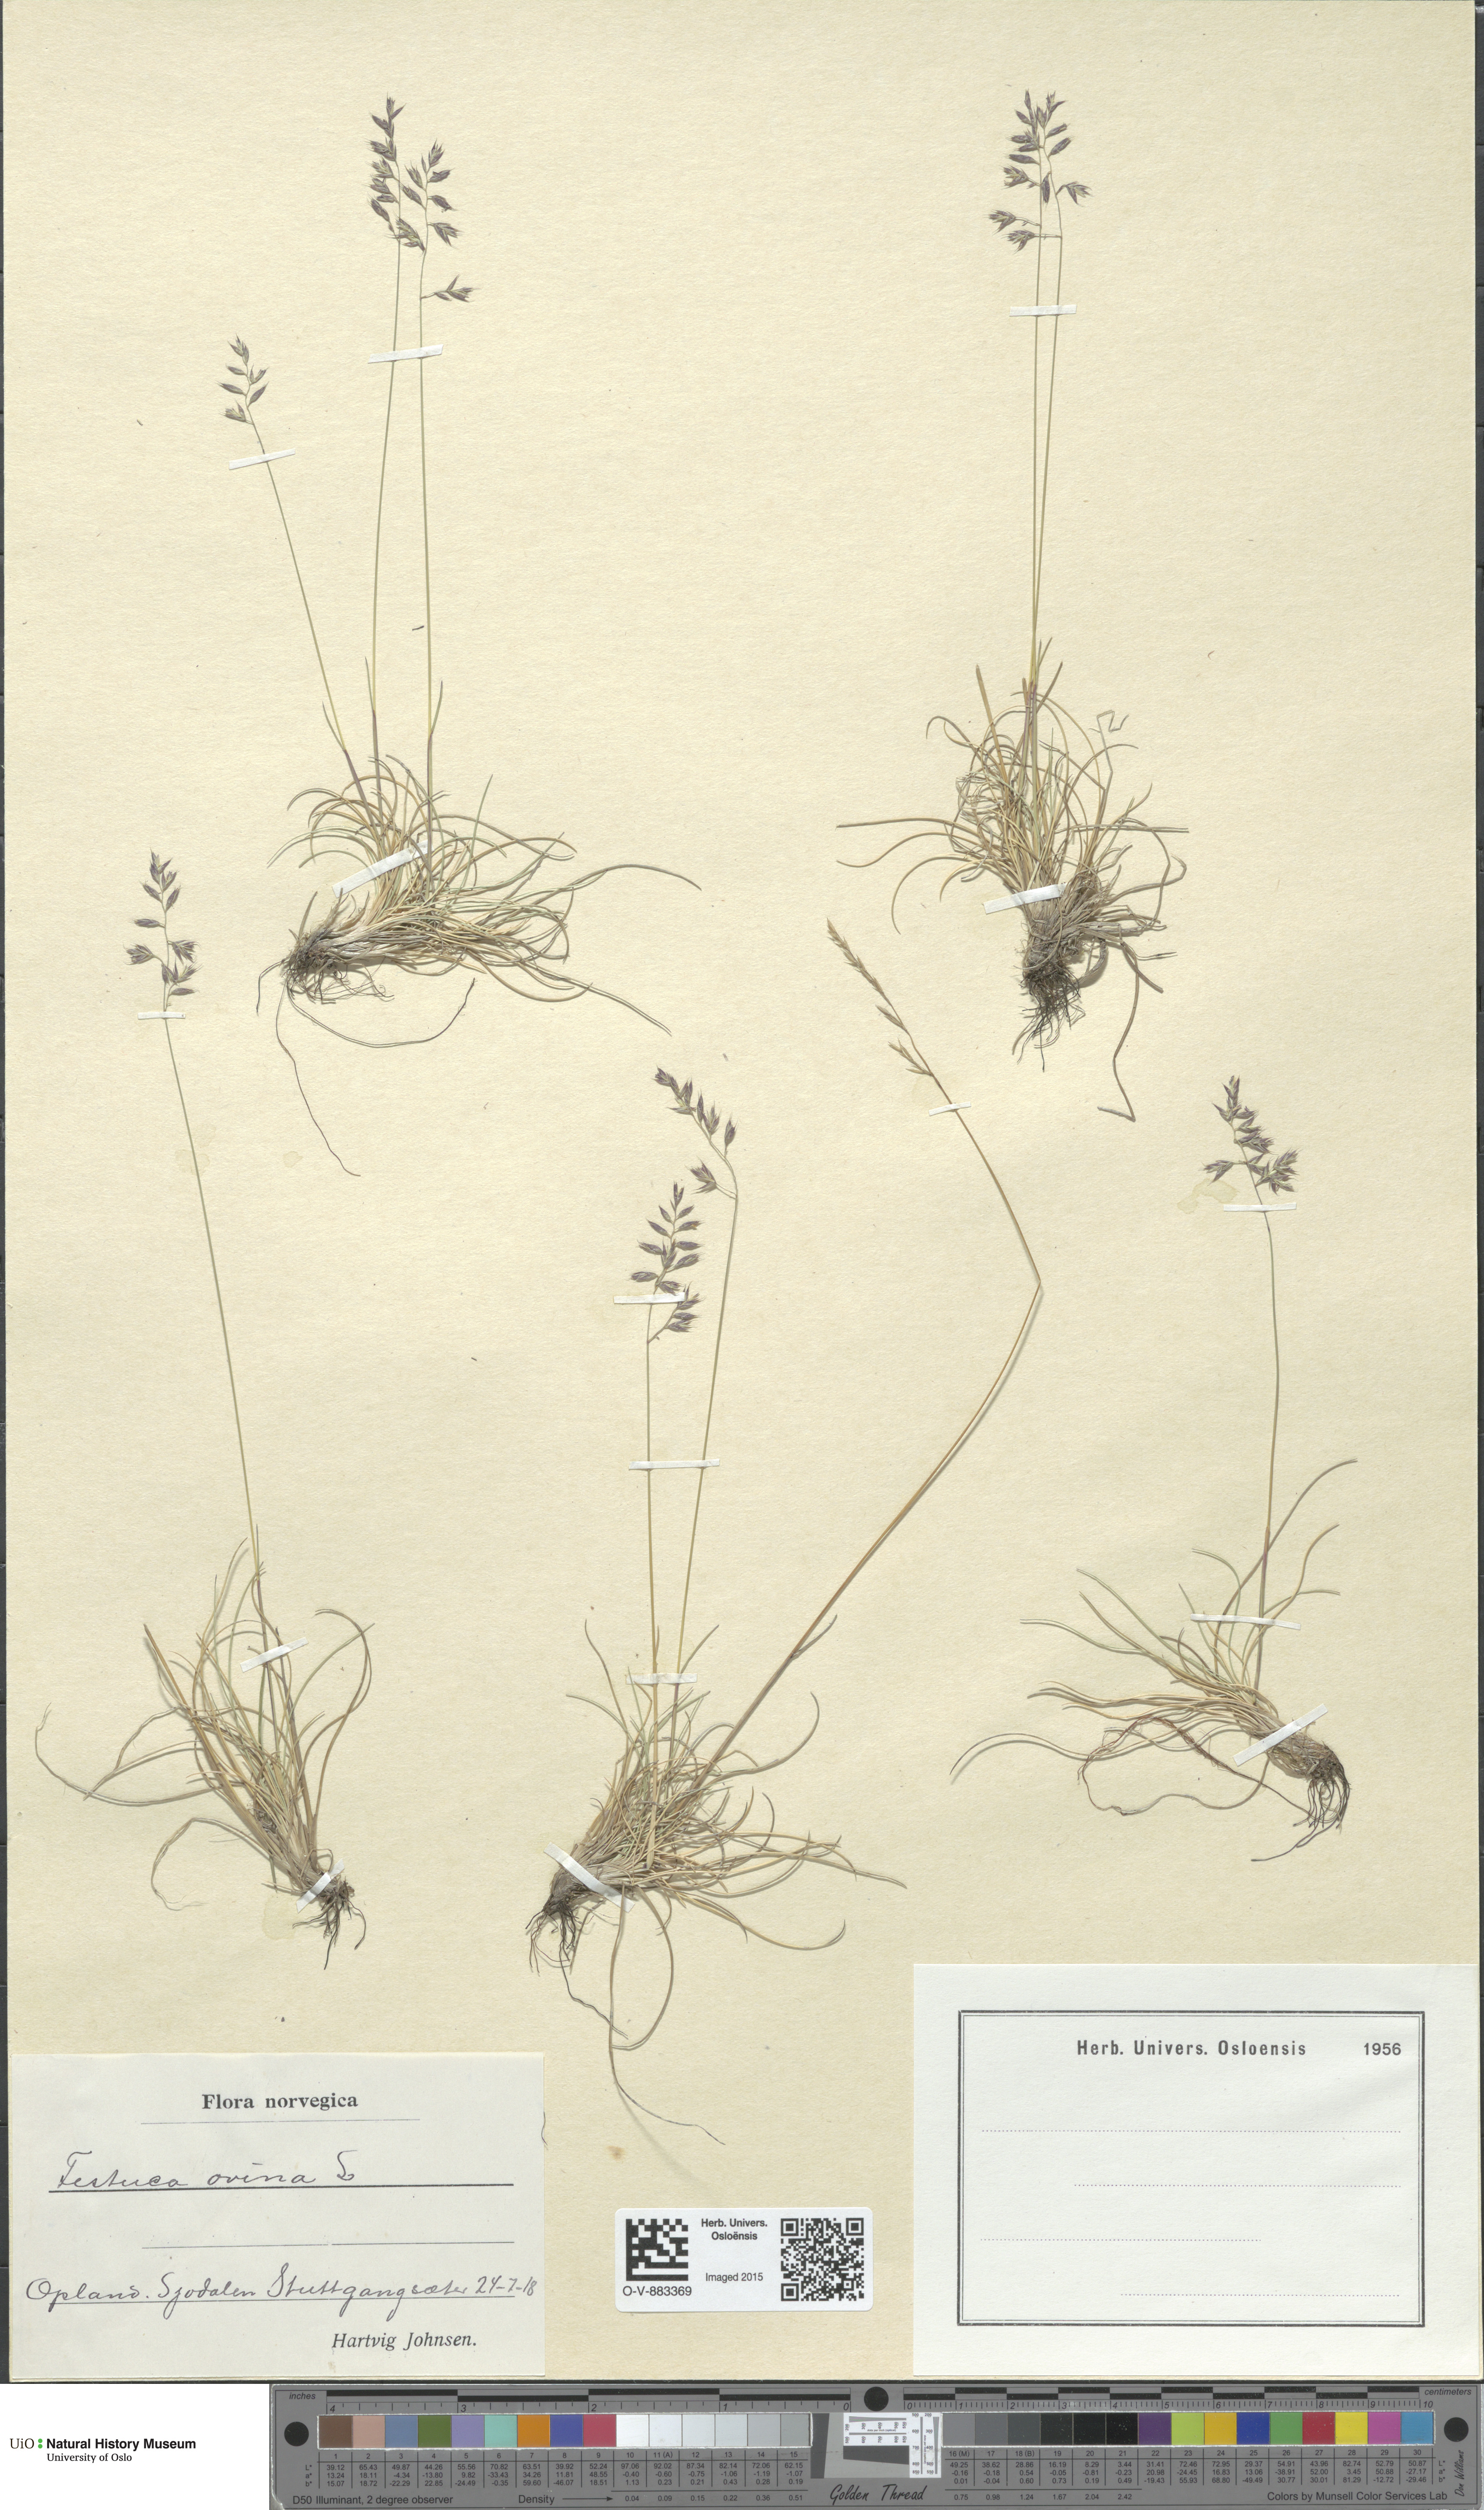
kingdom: Plantae
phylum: Tracheophyta
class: Liliopsida
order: Poales
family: Poaceae
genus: Festuca
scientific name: Festuca ovina
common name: Sheep fescue
